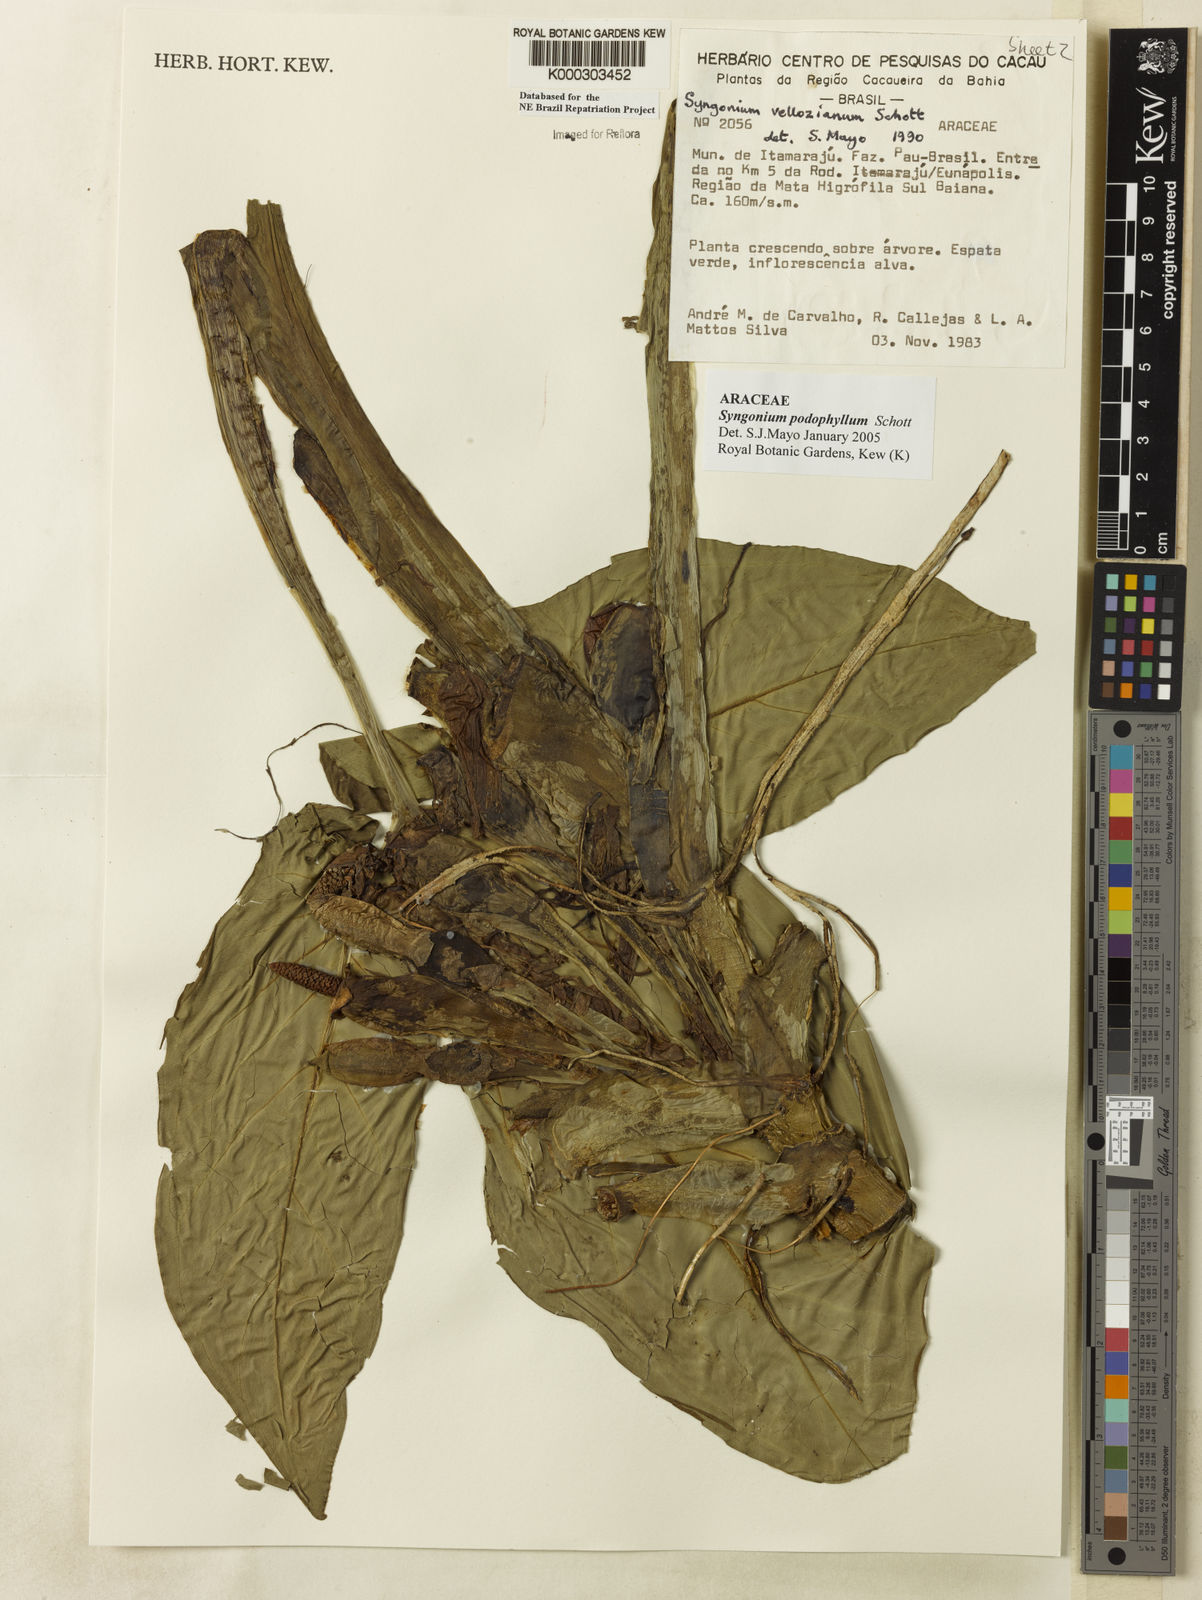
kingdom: Plantae
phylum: Tracheophyta
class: Liliopsida
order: Alismatales
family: Araceae
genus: Syngonium
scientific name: Syngonium podophyllum
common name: American evergreen
